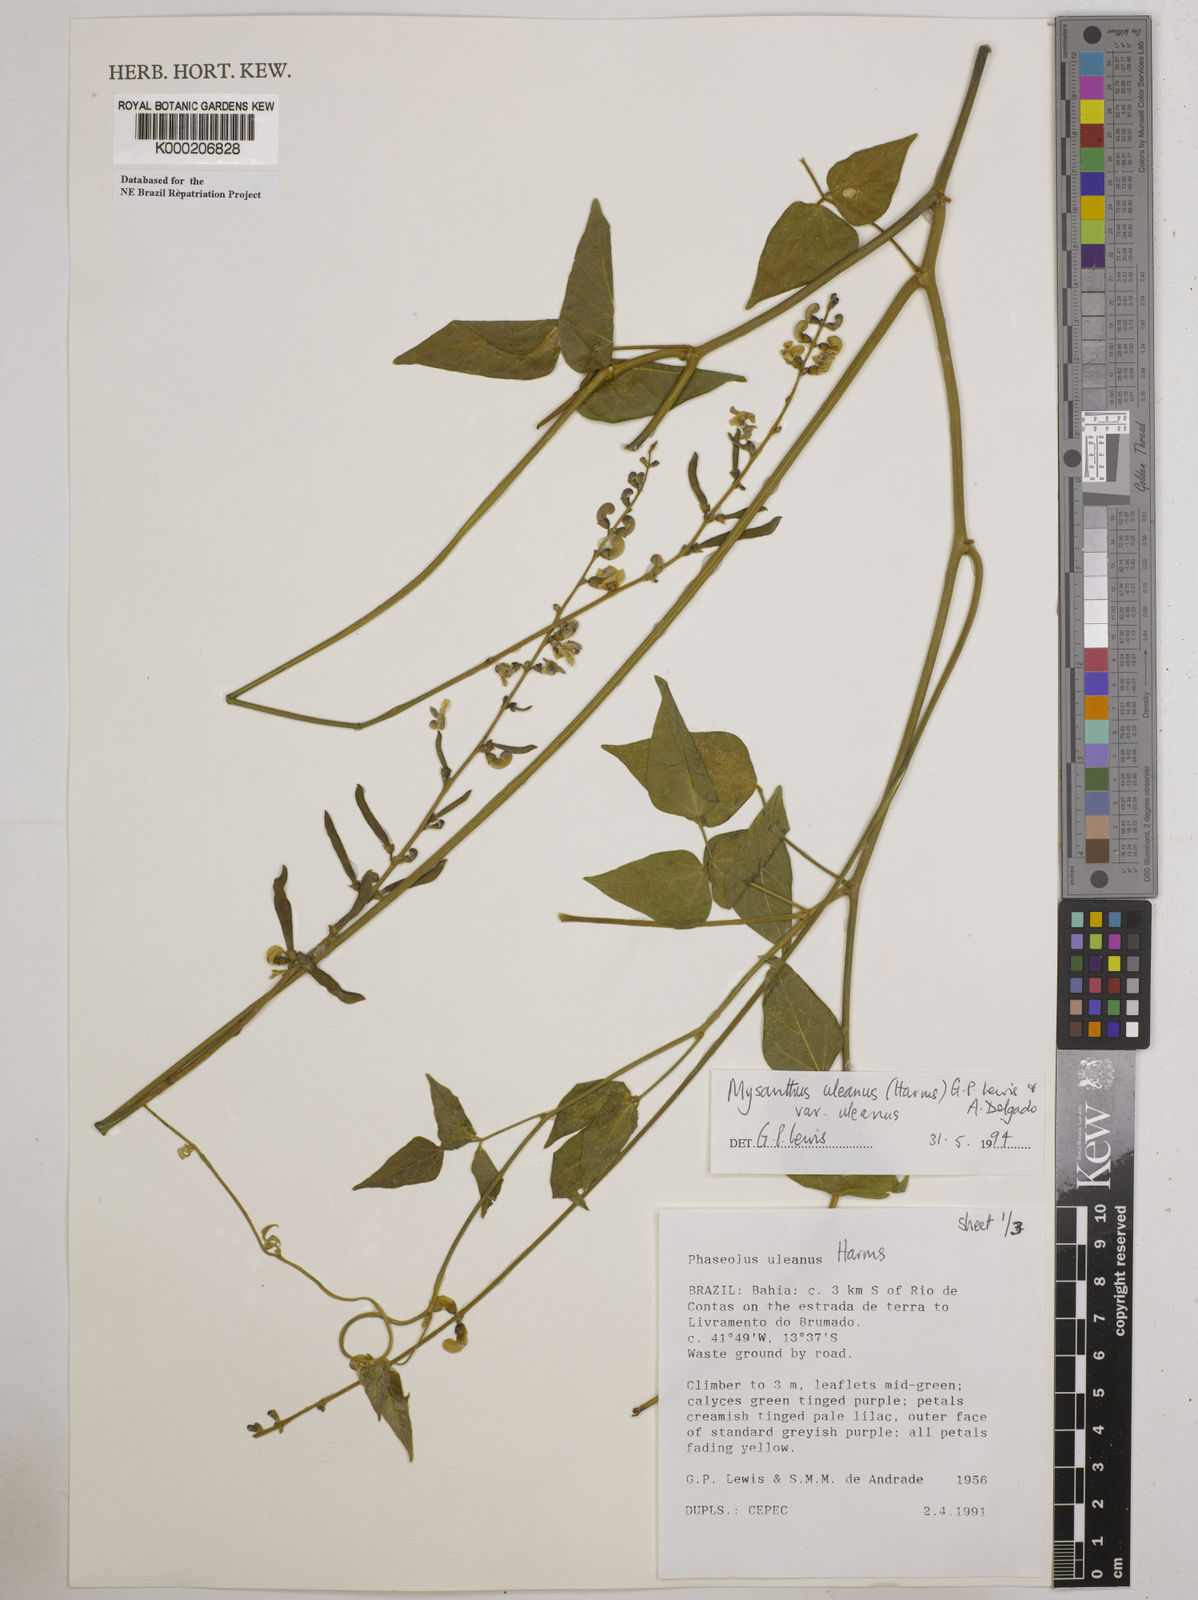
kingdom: Plantae
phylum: Tracheophyta
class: Magnoliopsida
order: Fabales
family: Fabaceae
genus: Mysanthus
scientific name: Mysanthus uleanus
